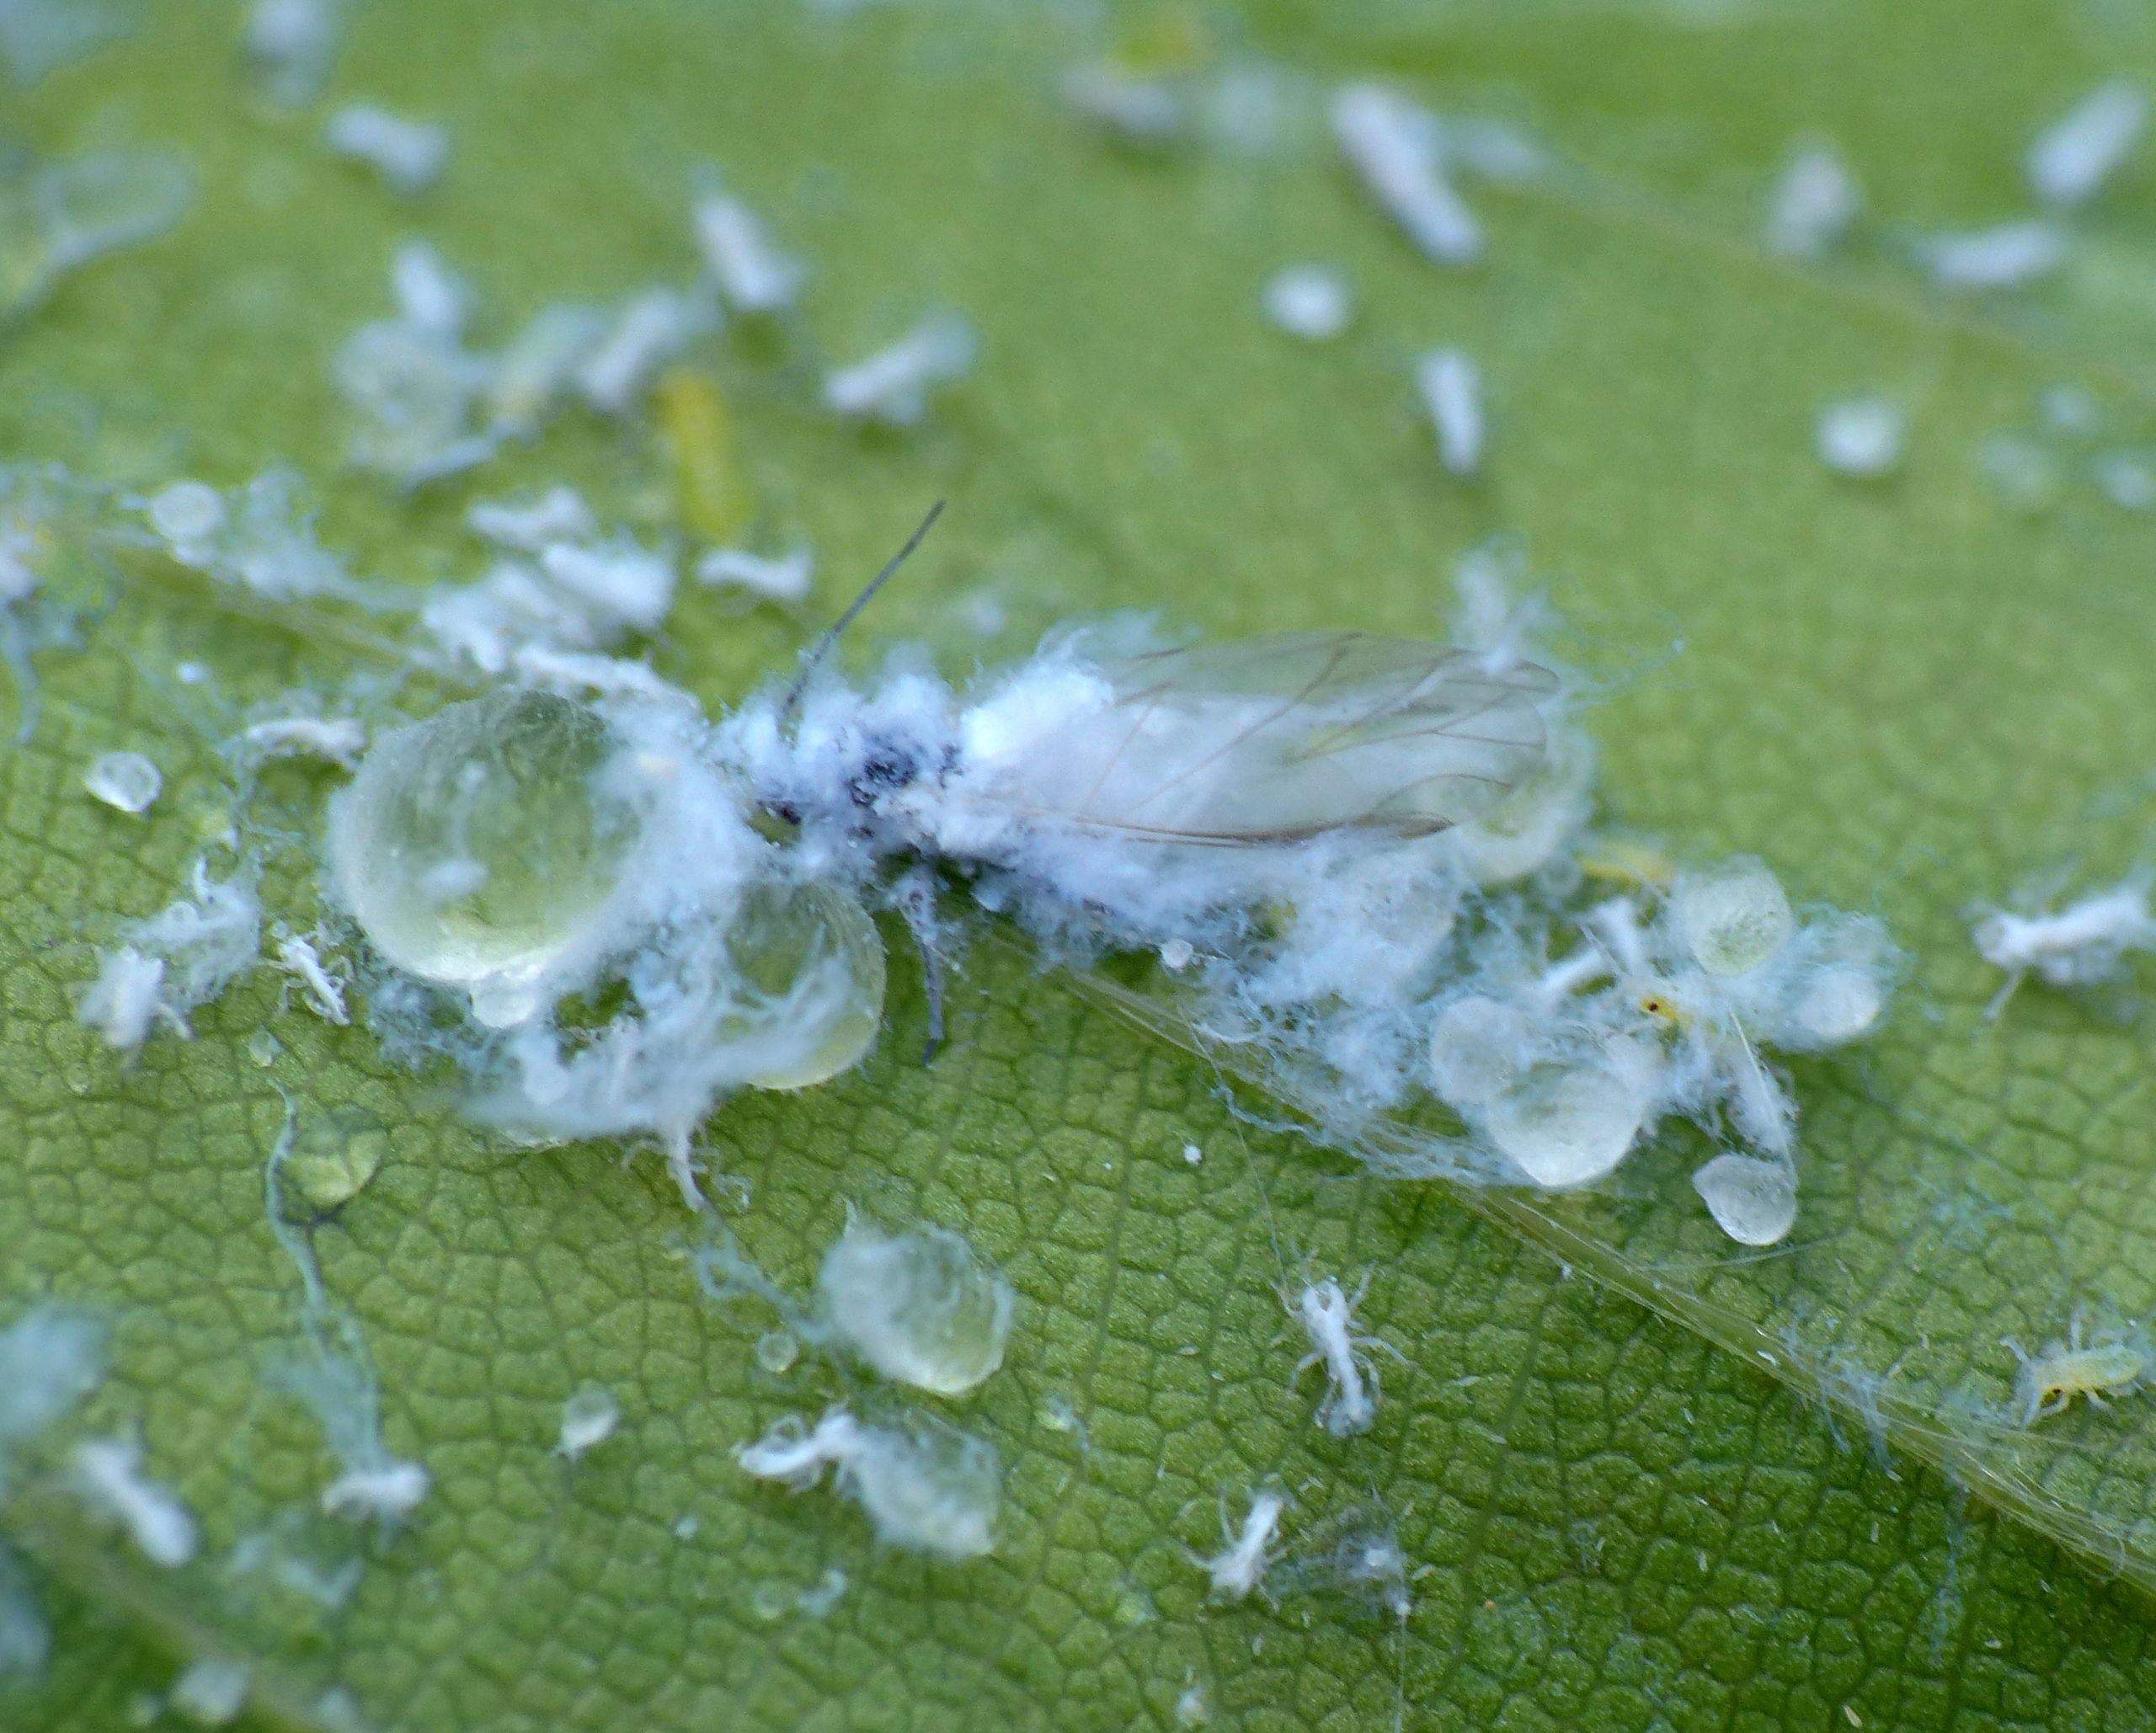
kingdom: Animalia
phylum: Arthropoda
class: Insecta
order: Hemiptera
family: Aphididae
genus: Phyllaphis
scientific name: Phyllaphis fagi
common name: Bøgebladlus
